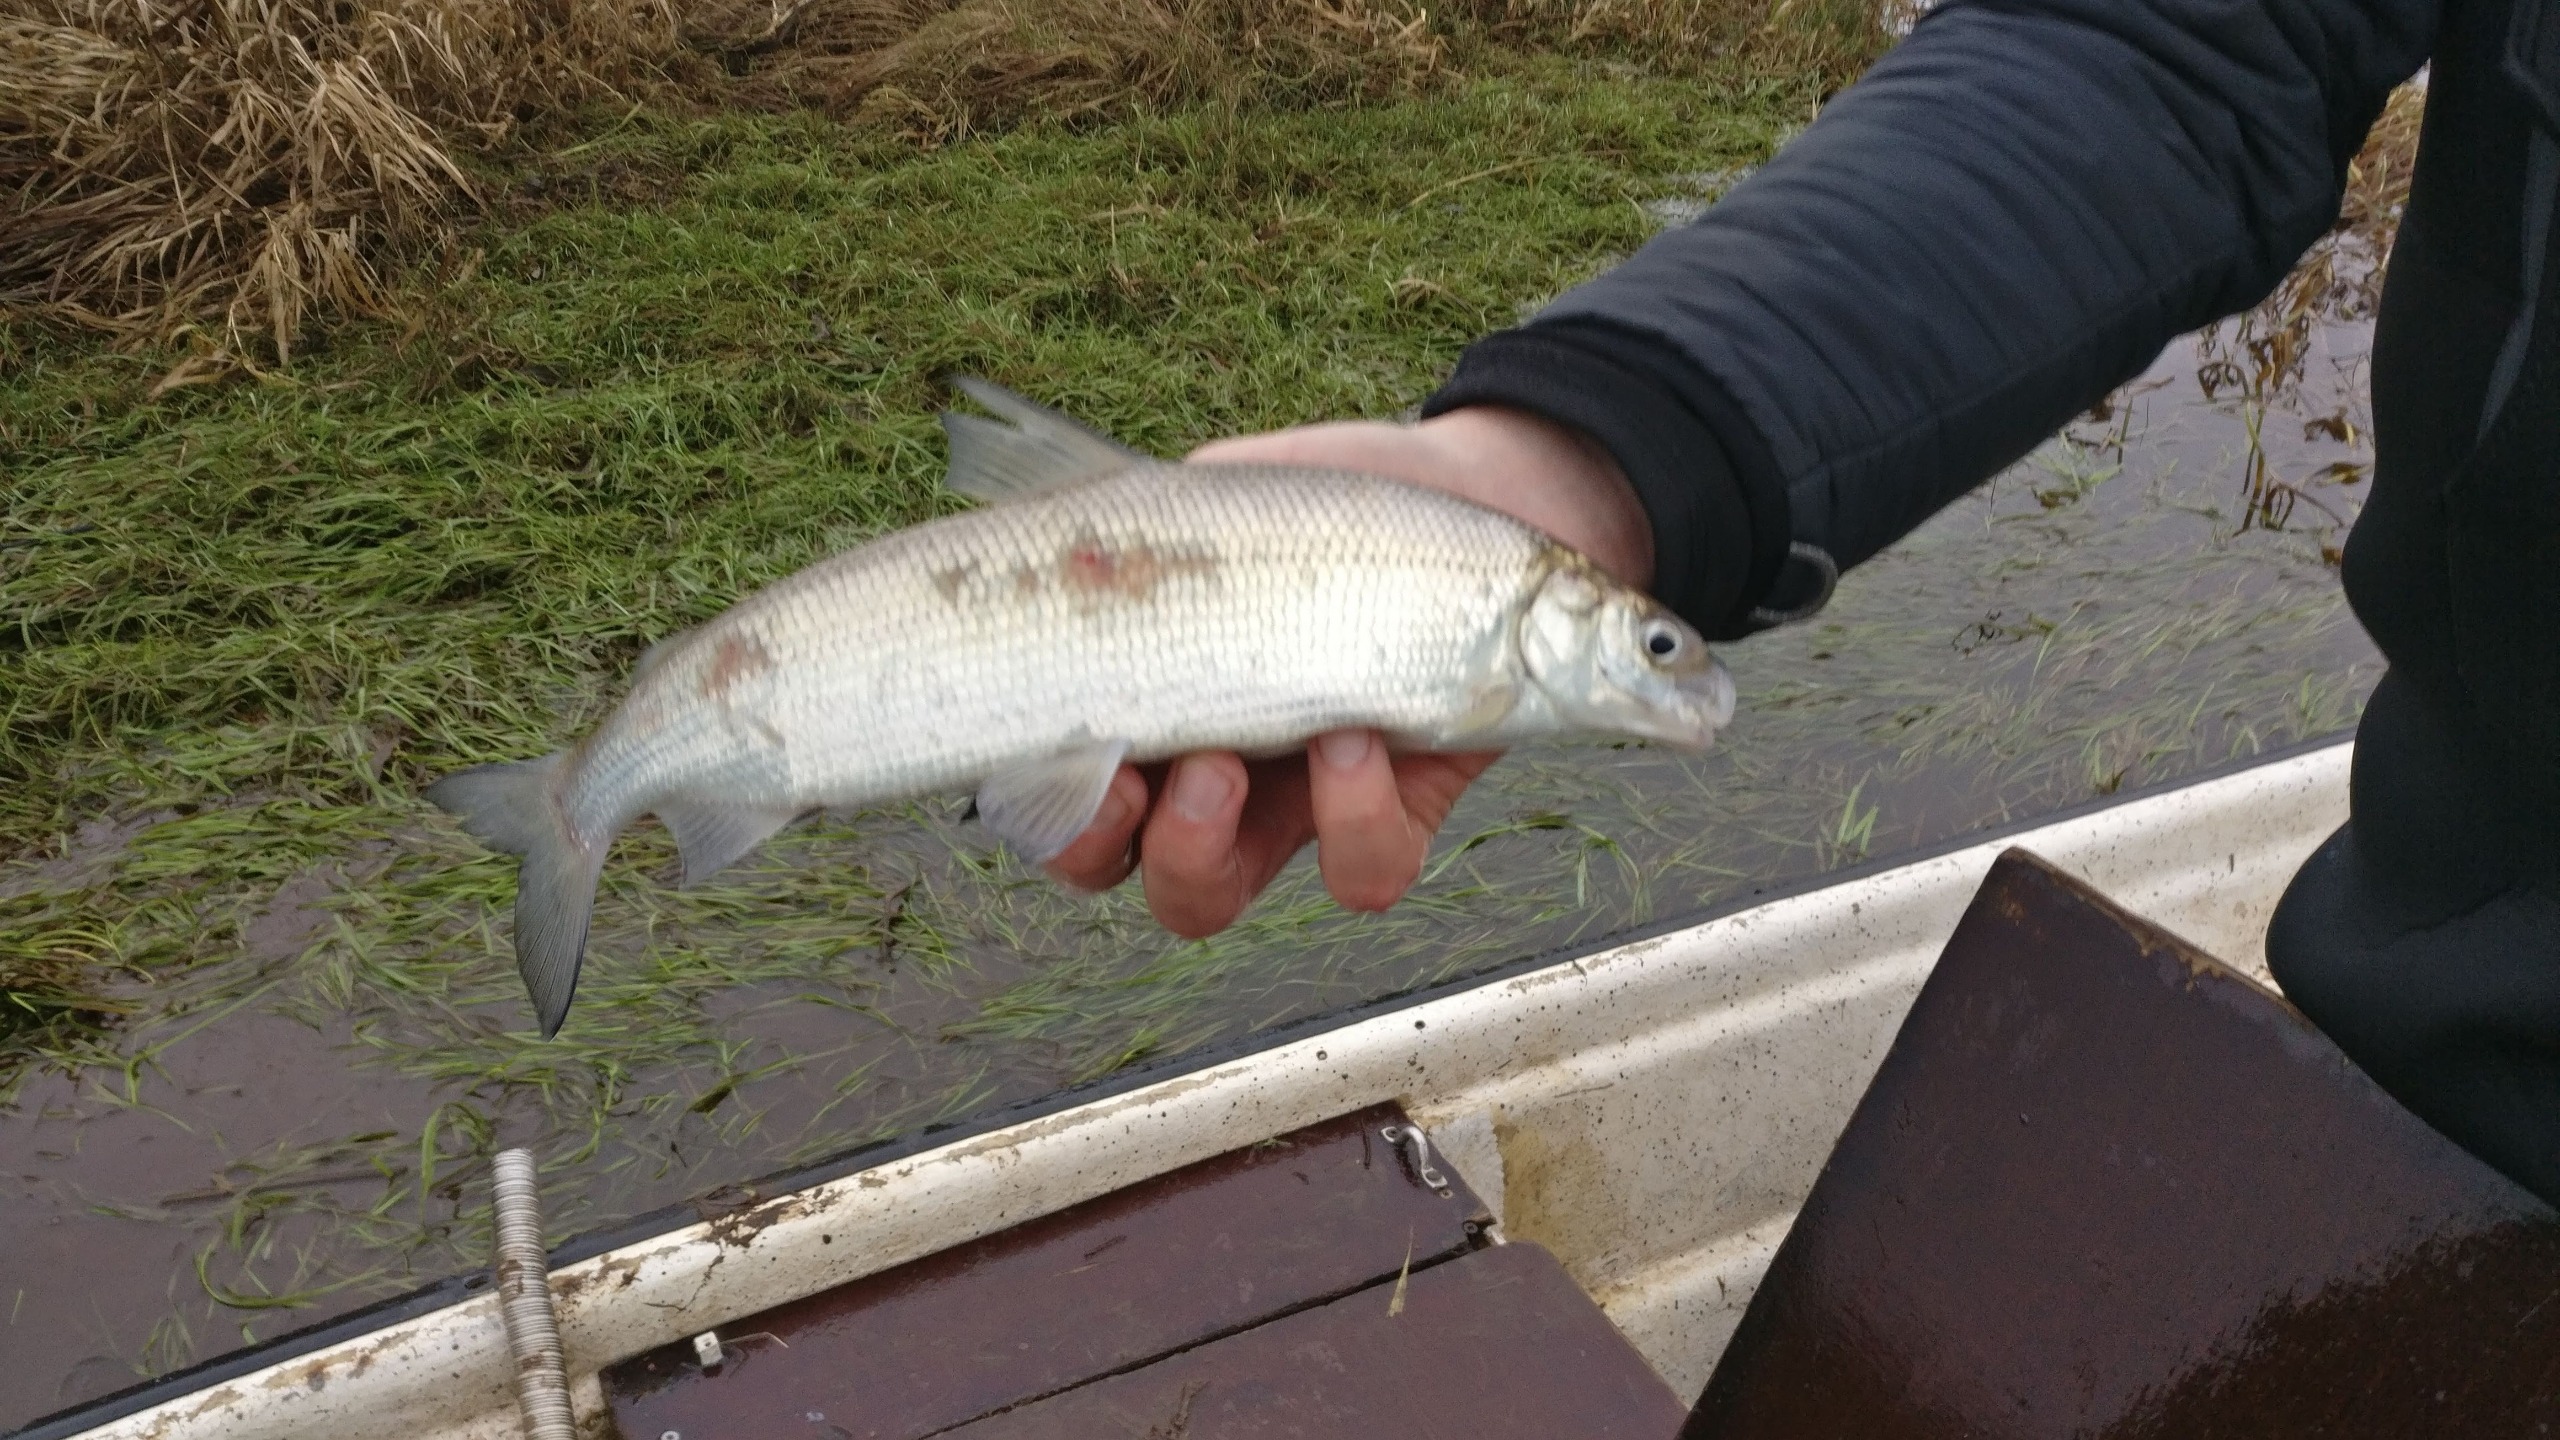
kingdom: Animalia
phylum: Chordata
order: Salmoniformes
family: Salmonidae
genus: Coregonus
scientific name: Coregonus maraena
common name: Helt
